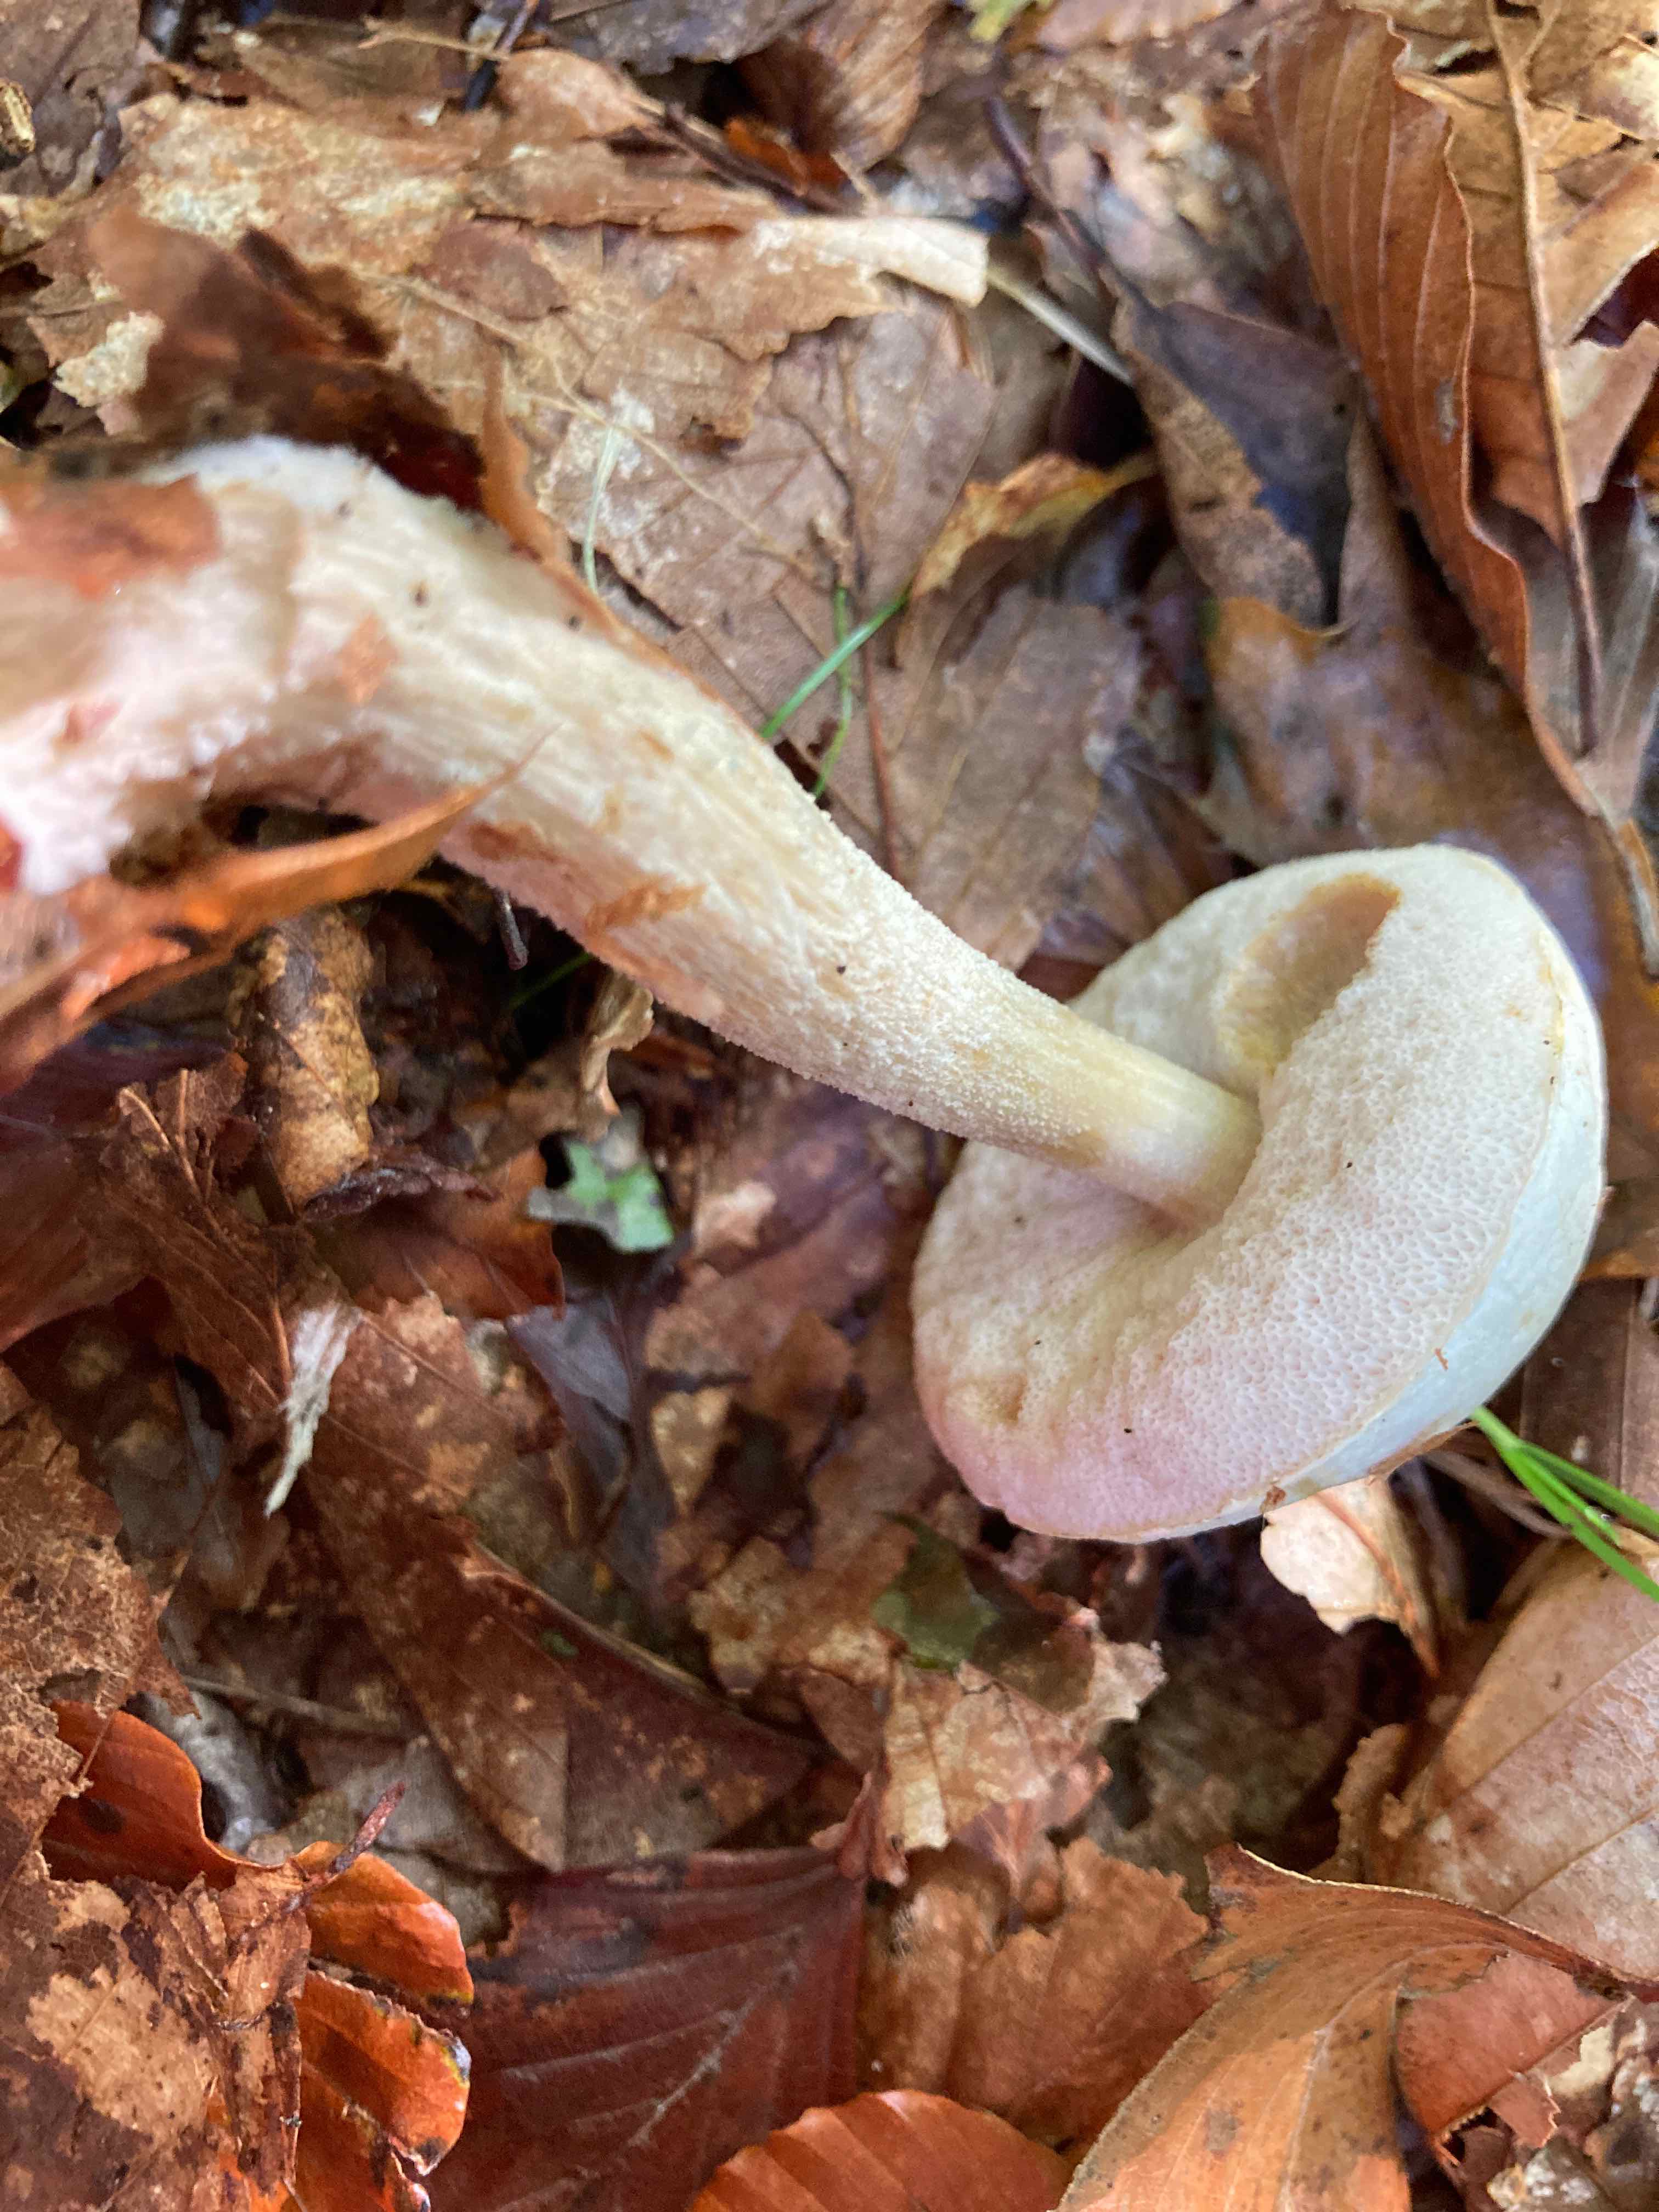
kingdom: Fungi
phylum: Basidiomycota
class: Agaricomycetes
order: Boletales
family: Boletaceae
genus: Leccinum
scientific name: Leccinum scabrum
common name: hvid skælrørhat
